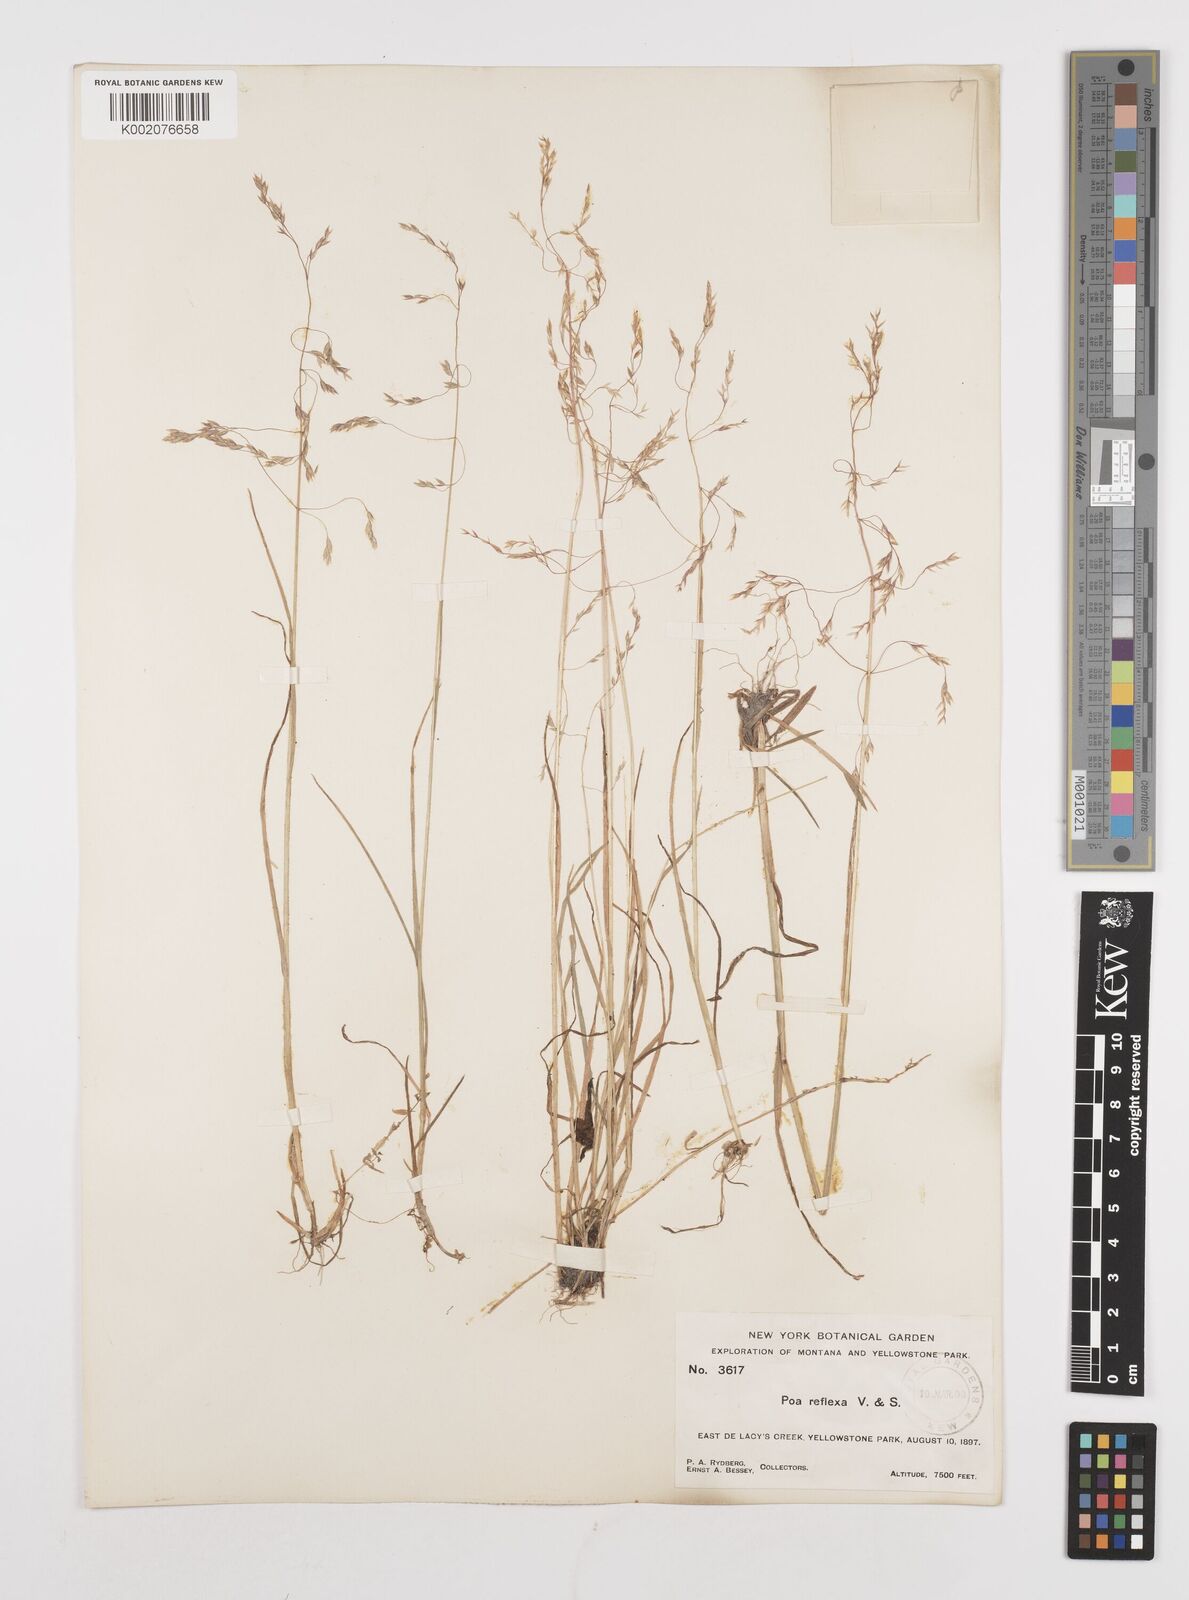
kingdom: Plantae
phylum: Tracheophyta
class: Liliopsida
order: Poales
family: Poaceae
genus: Poa
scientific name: Poa reflexa
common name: Nodding bluegrass
